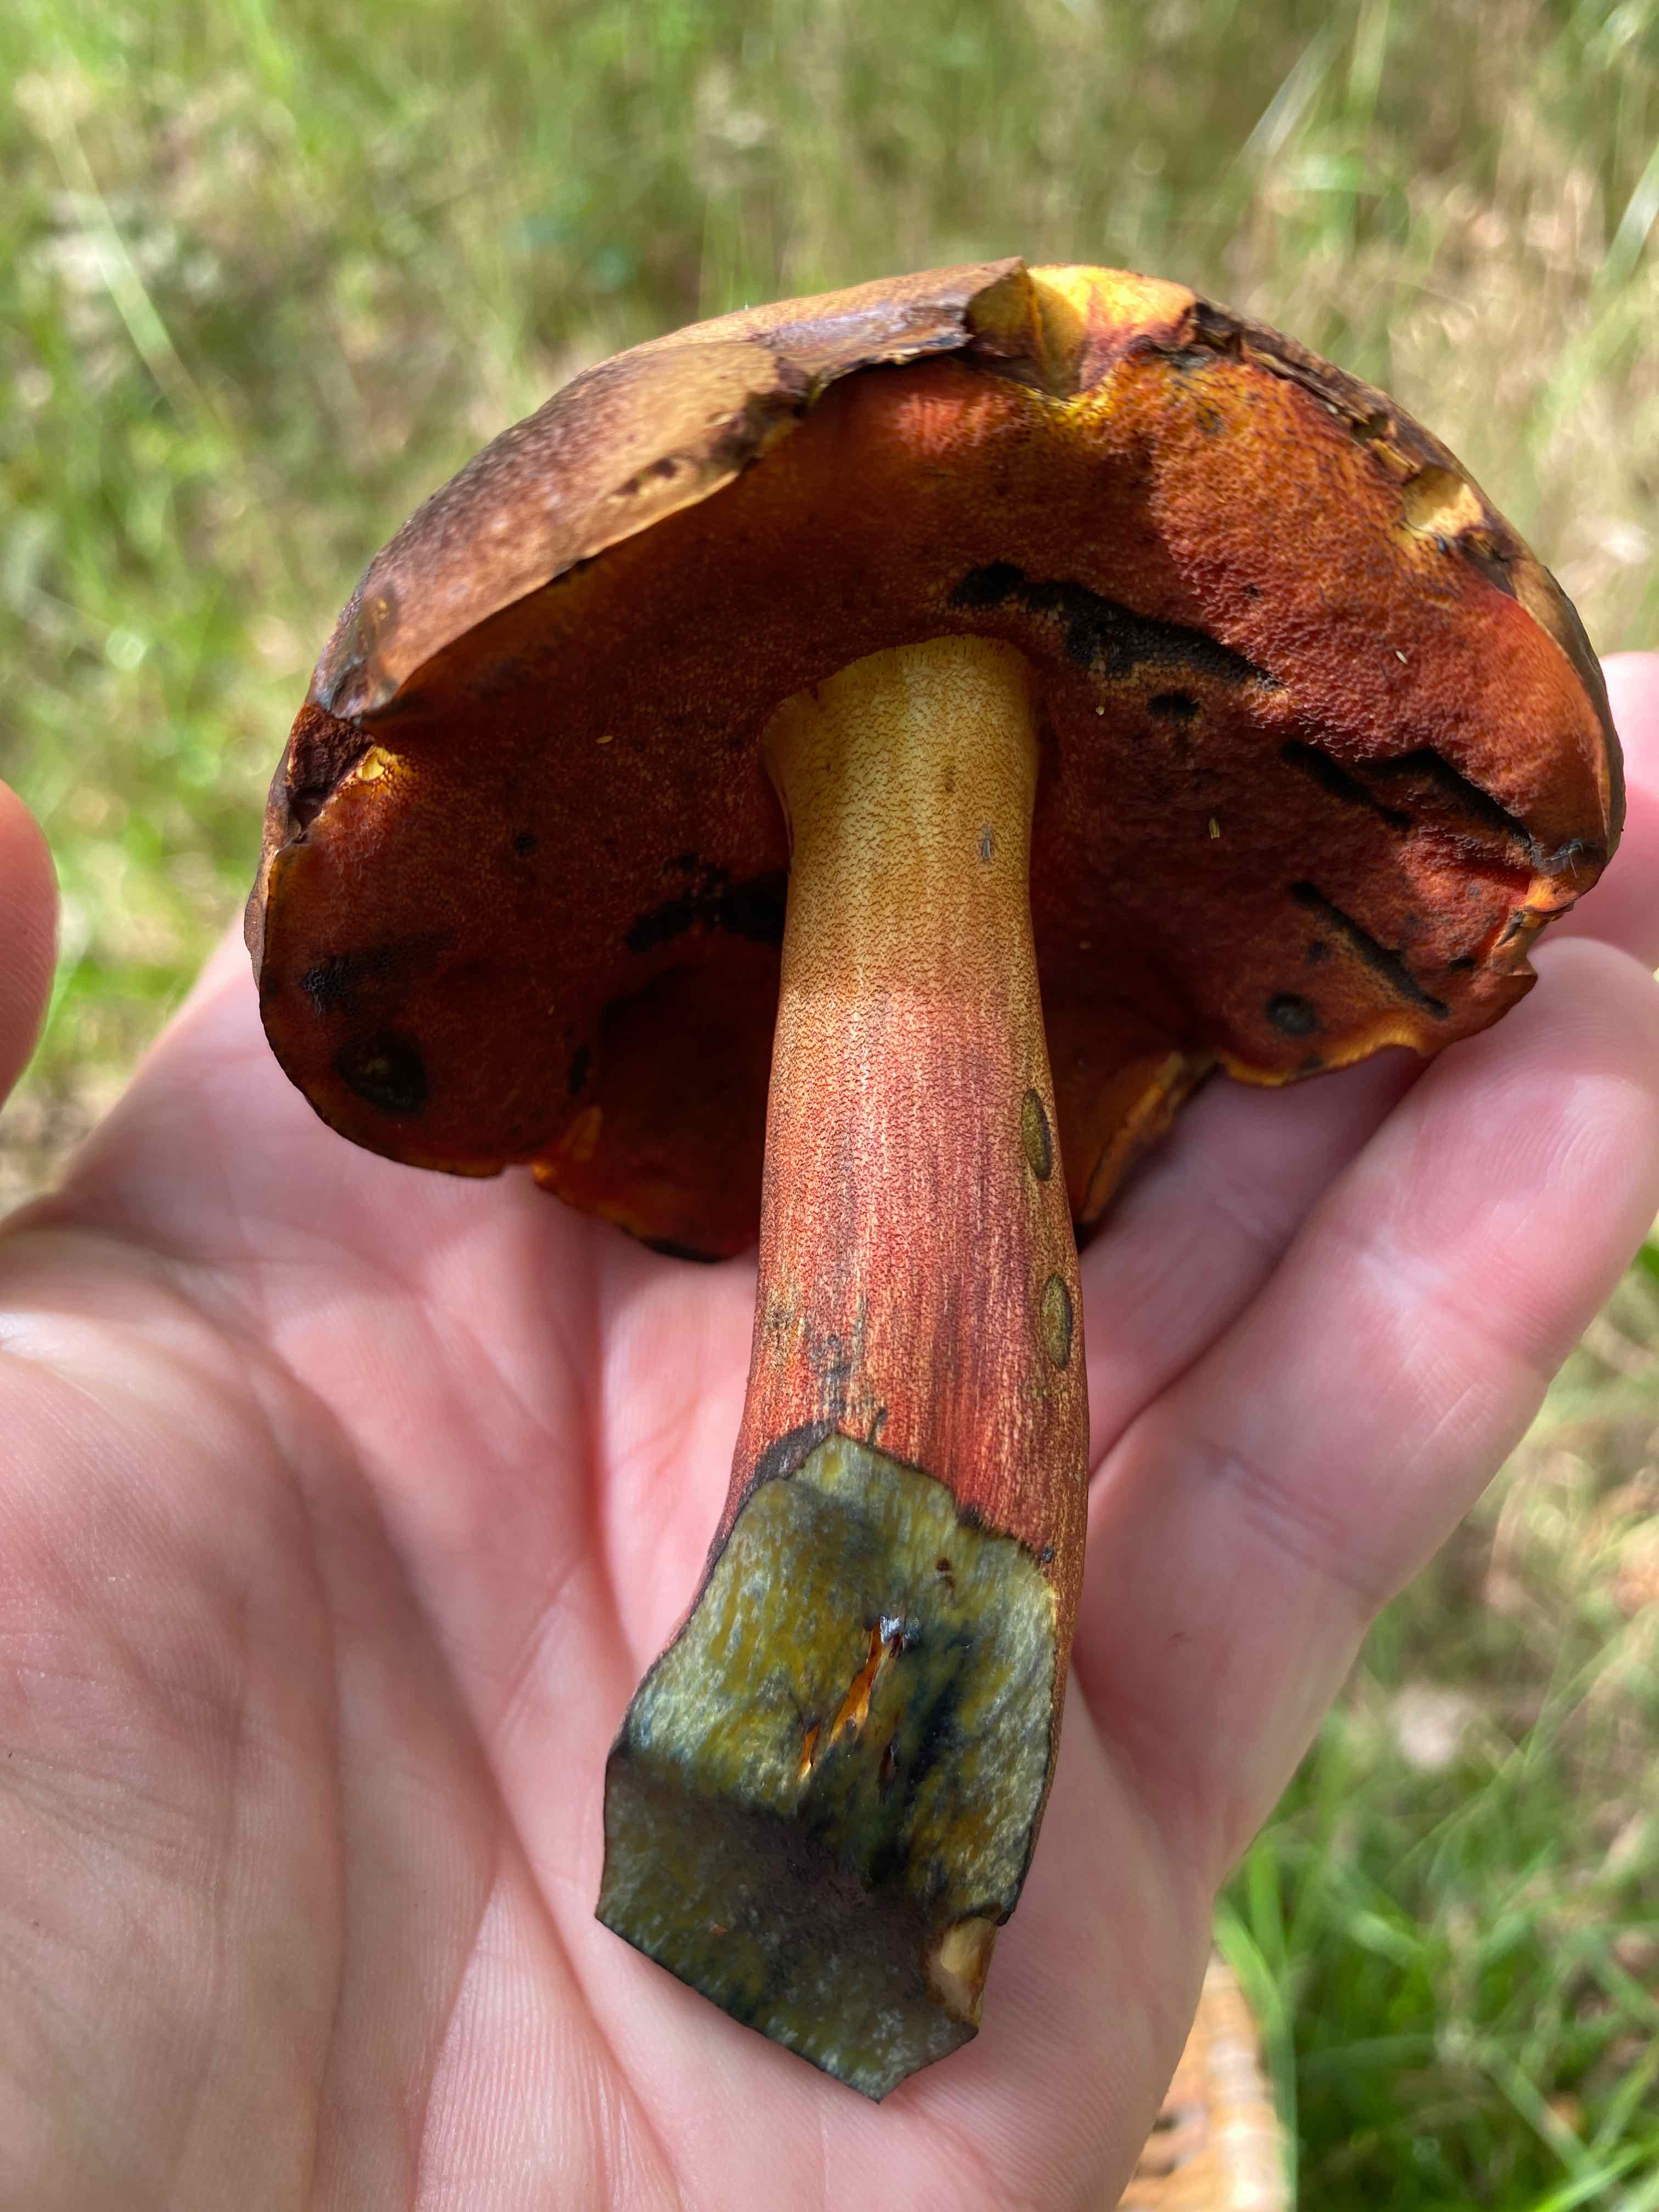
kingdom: Fungi
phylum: Basidiomycota
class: Agaricomycetes
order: Boletales
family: Boletaceae
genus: Neoboletus
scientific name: Neoboletus
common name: indigorørhat
